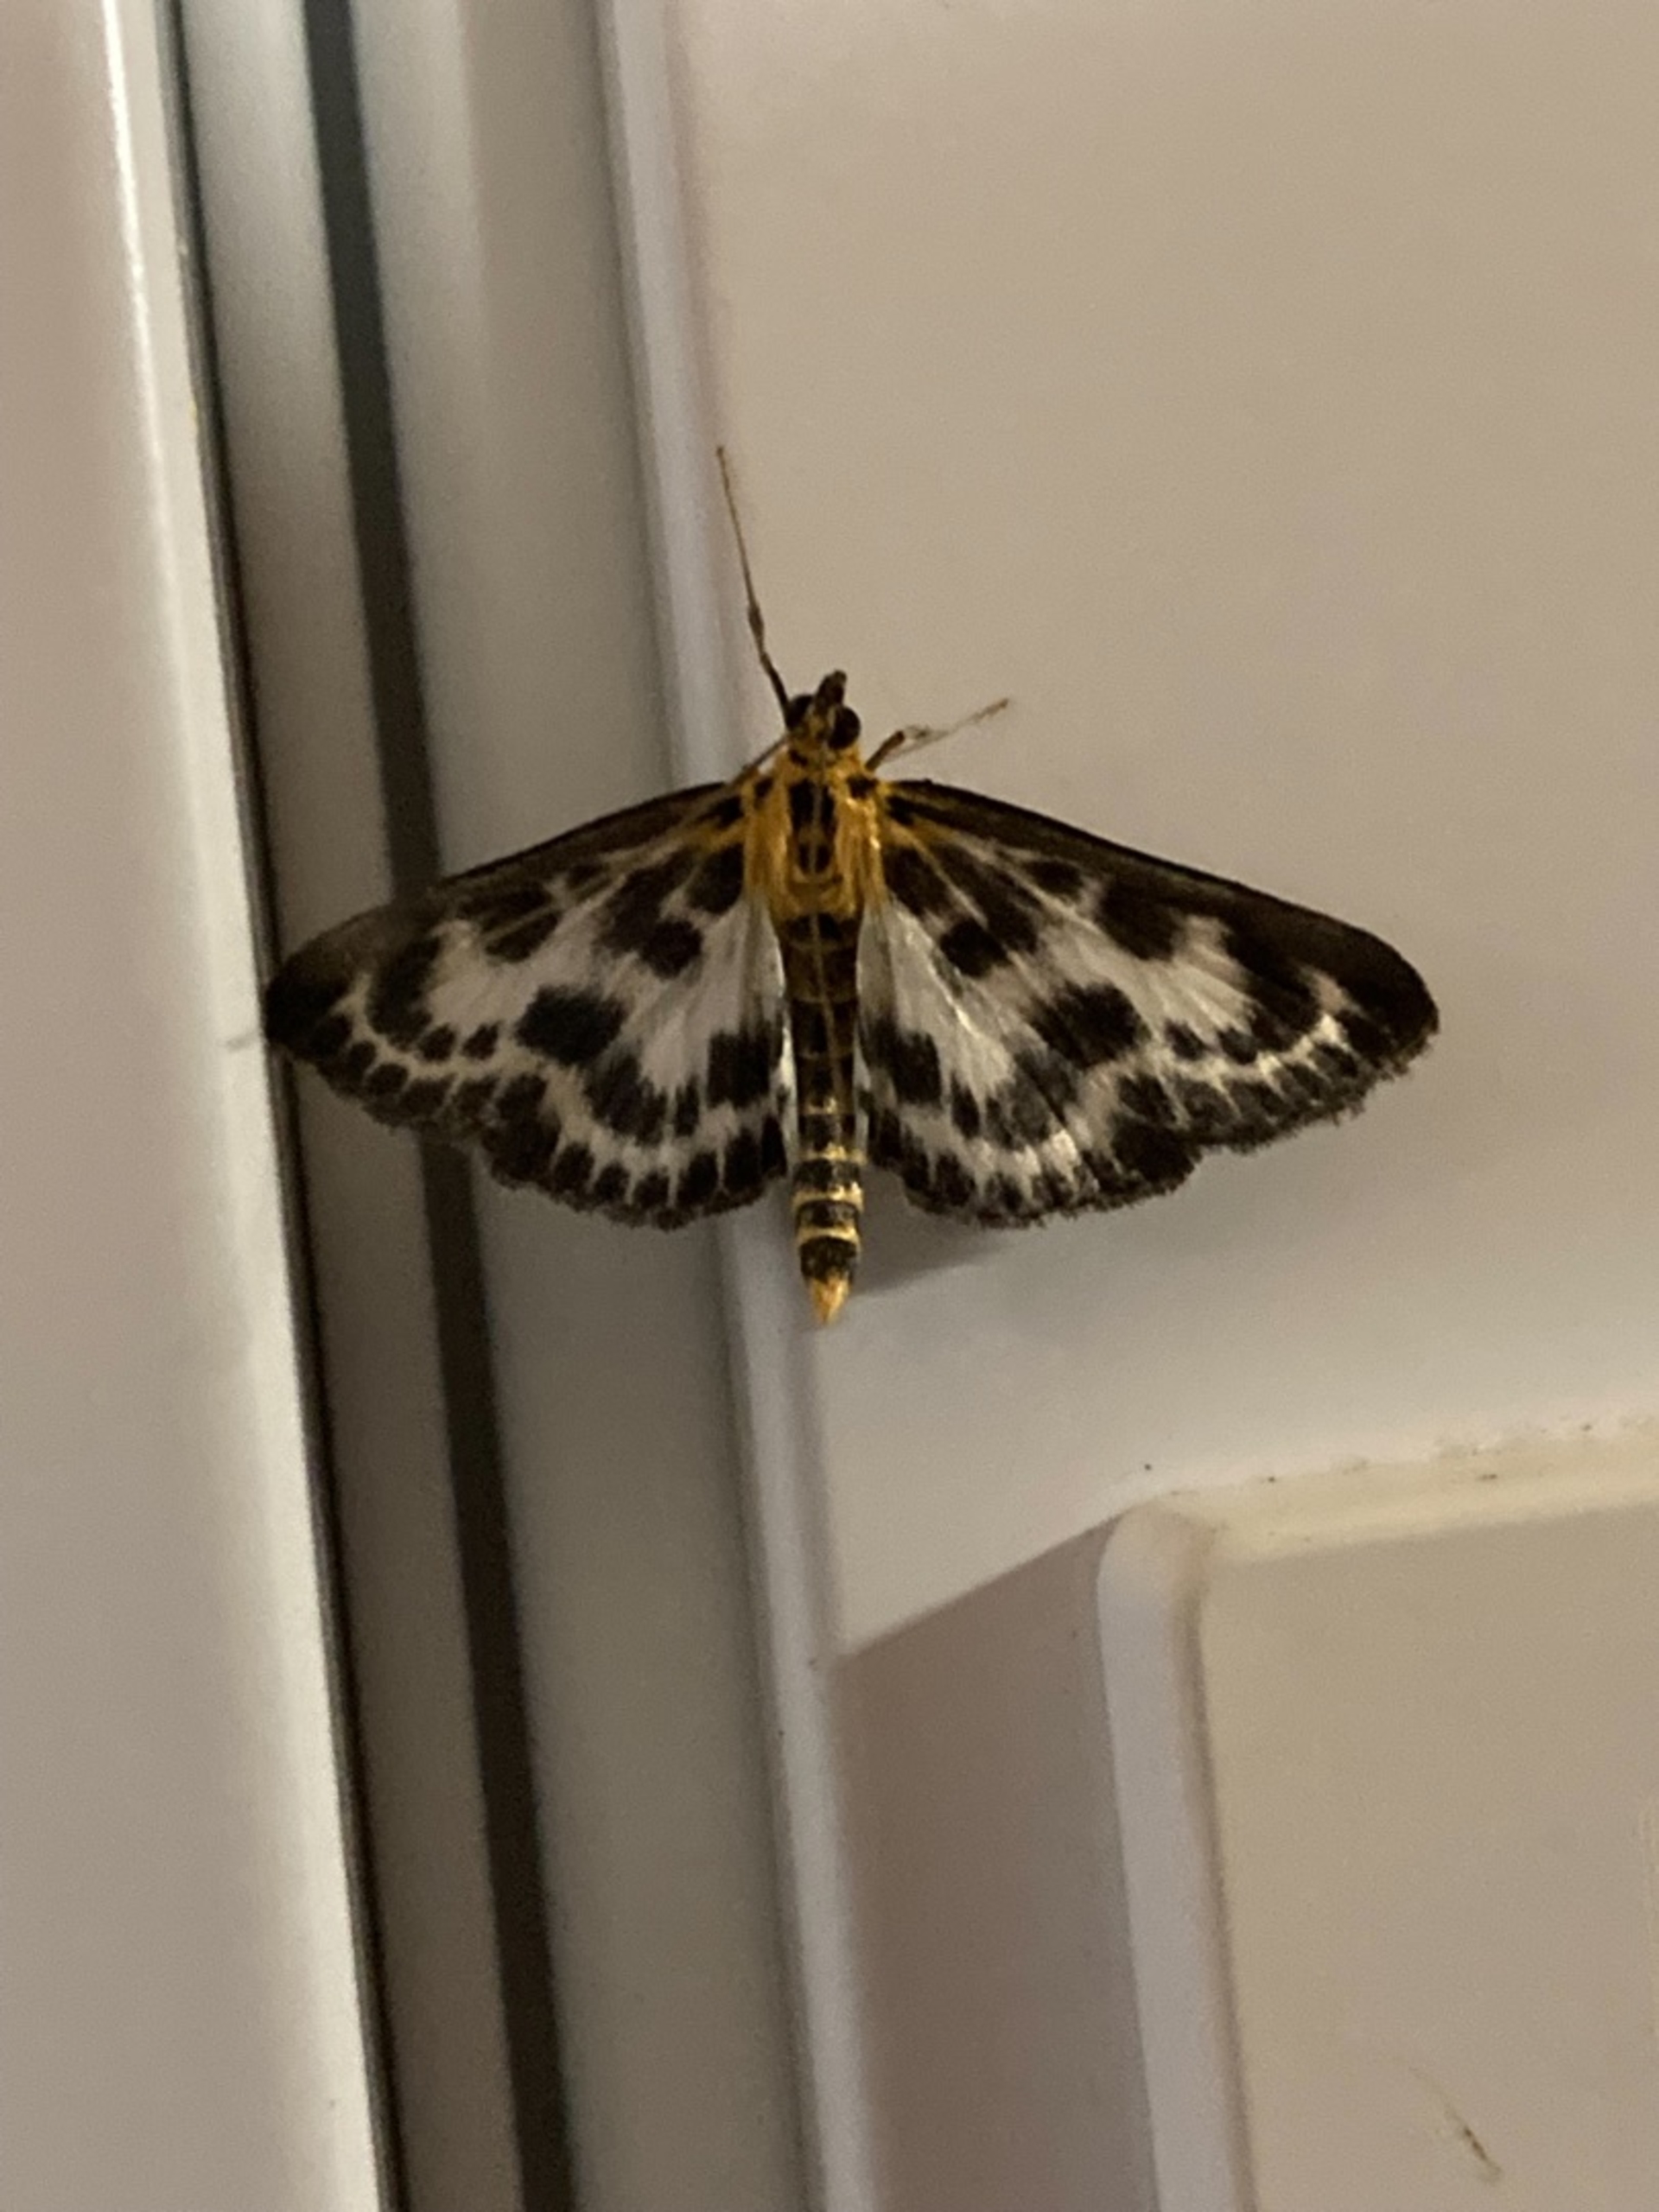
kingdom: Animalia
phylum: Arthropoda
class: Insecta
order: Lepidoptera
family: Crambidae
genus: Anania
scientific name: Anania hortulata
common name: Nældehalvmøl
